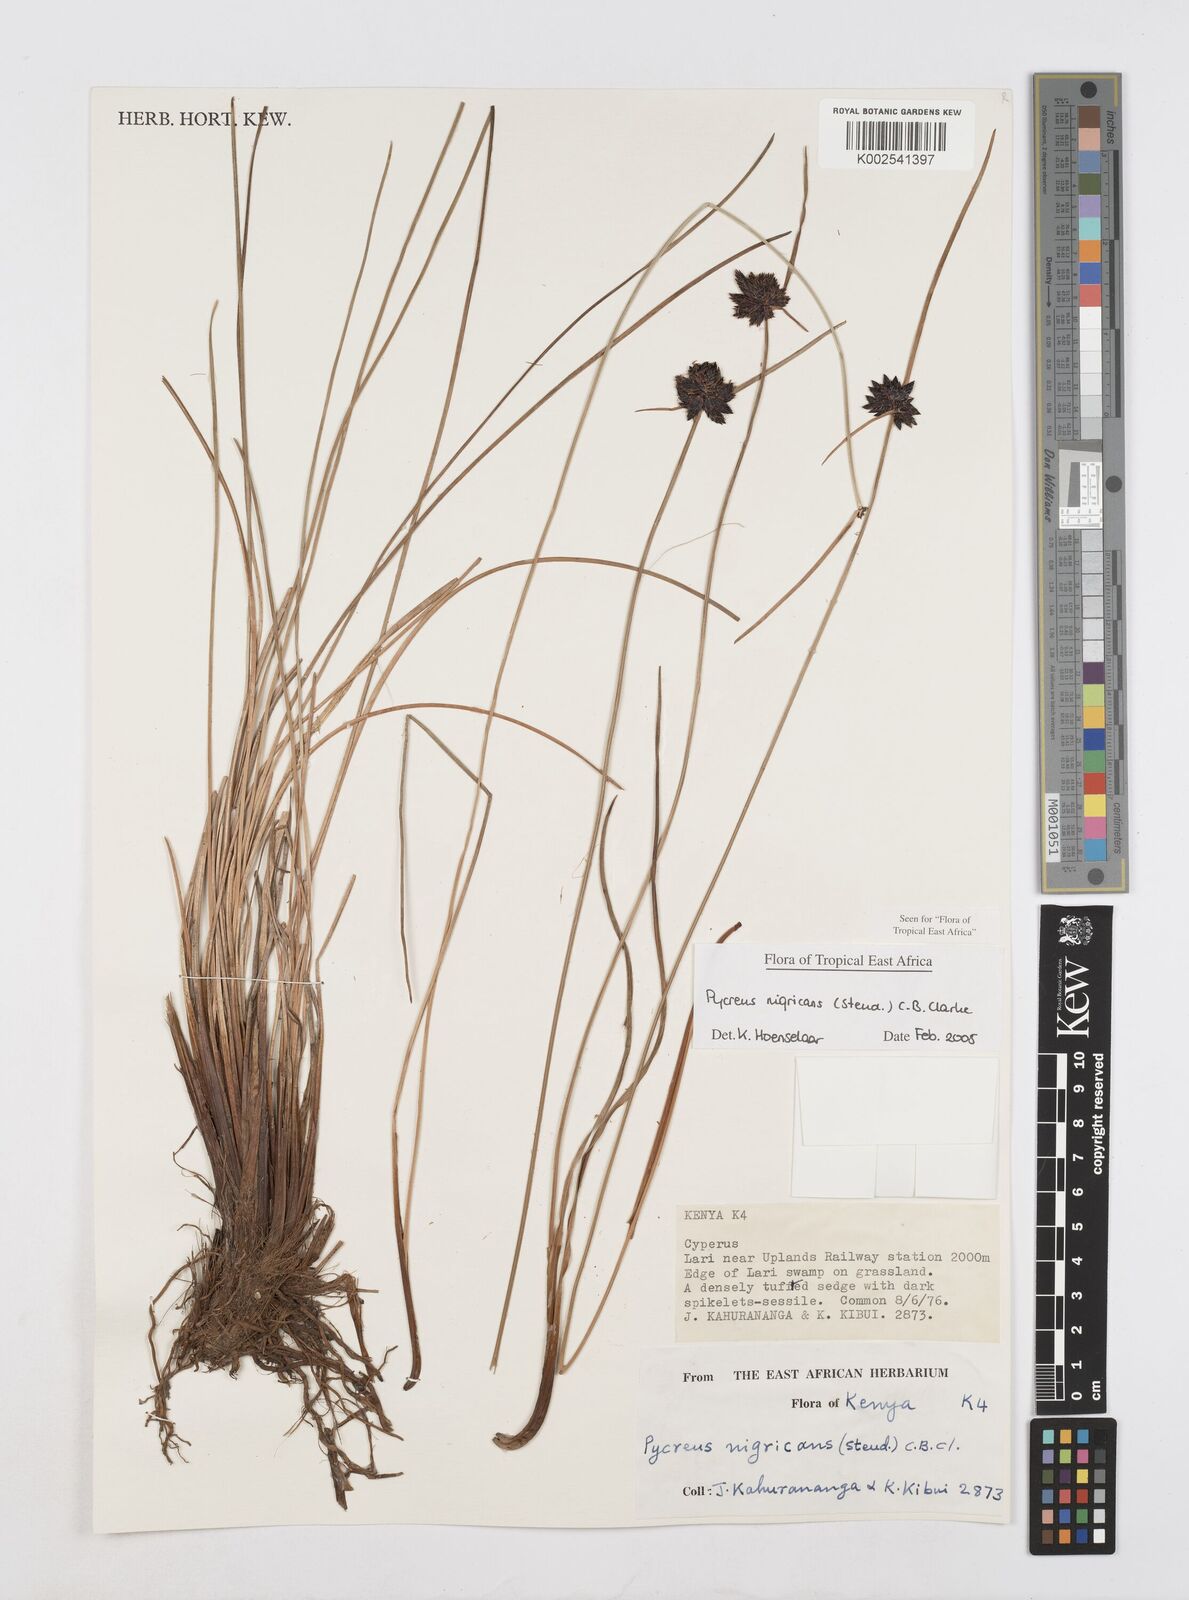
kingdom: Plantae
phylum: Tracheophyta
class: Liliopsida
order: Poales
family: Cyperaceae
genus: Cyperus
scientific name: Cyperus nigricans
